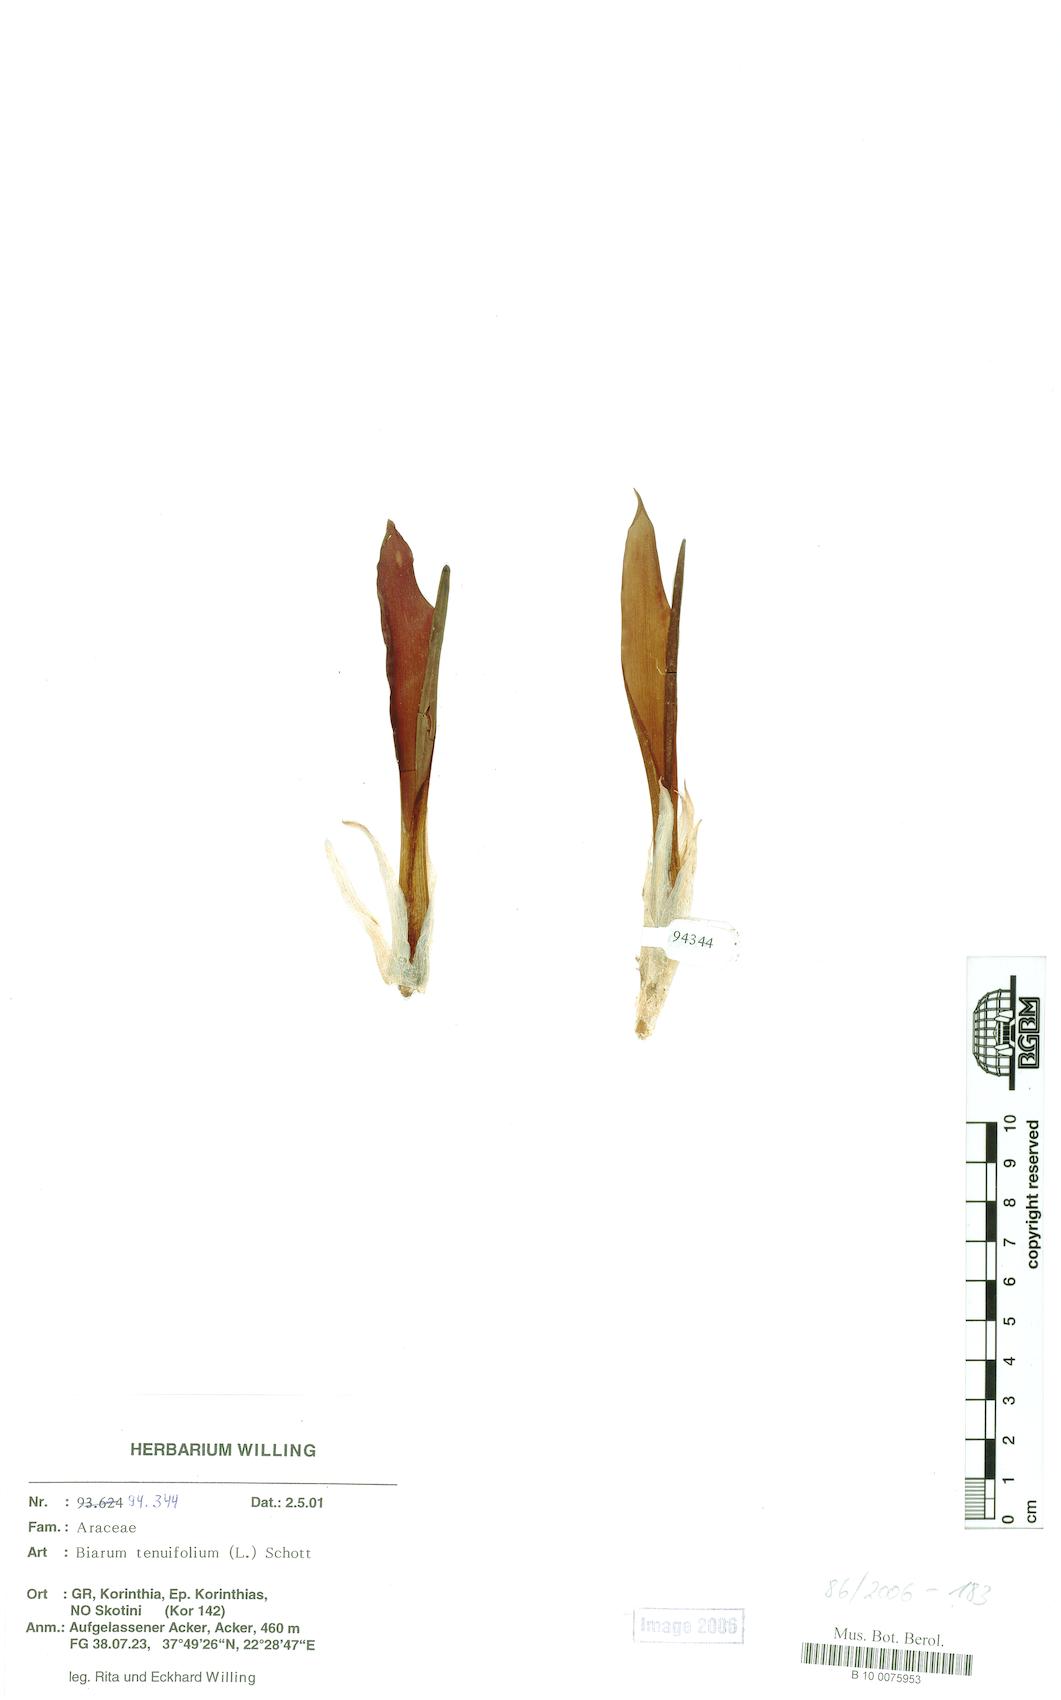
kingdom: Plantae
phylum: Tracheophyta
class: Liliopsida
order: Alismatales
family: Araceae
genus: Biarum
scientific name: Biarum tenuifolium
